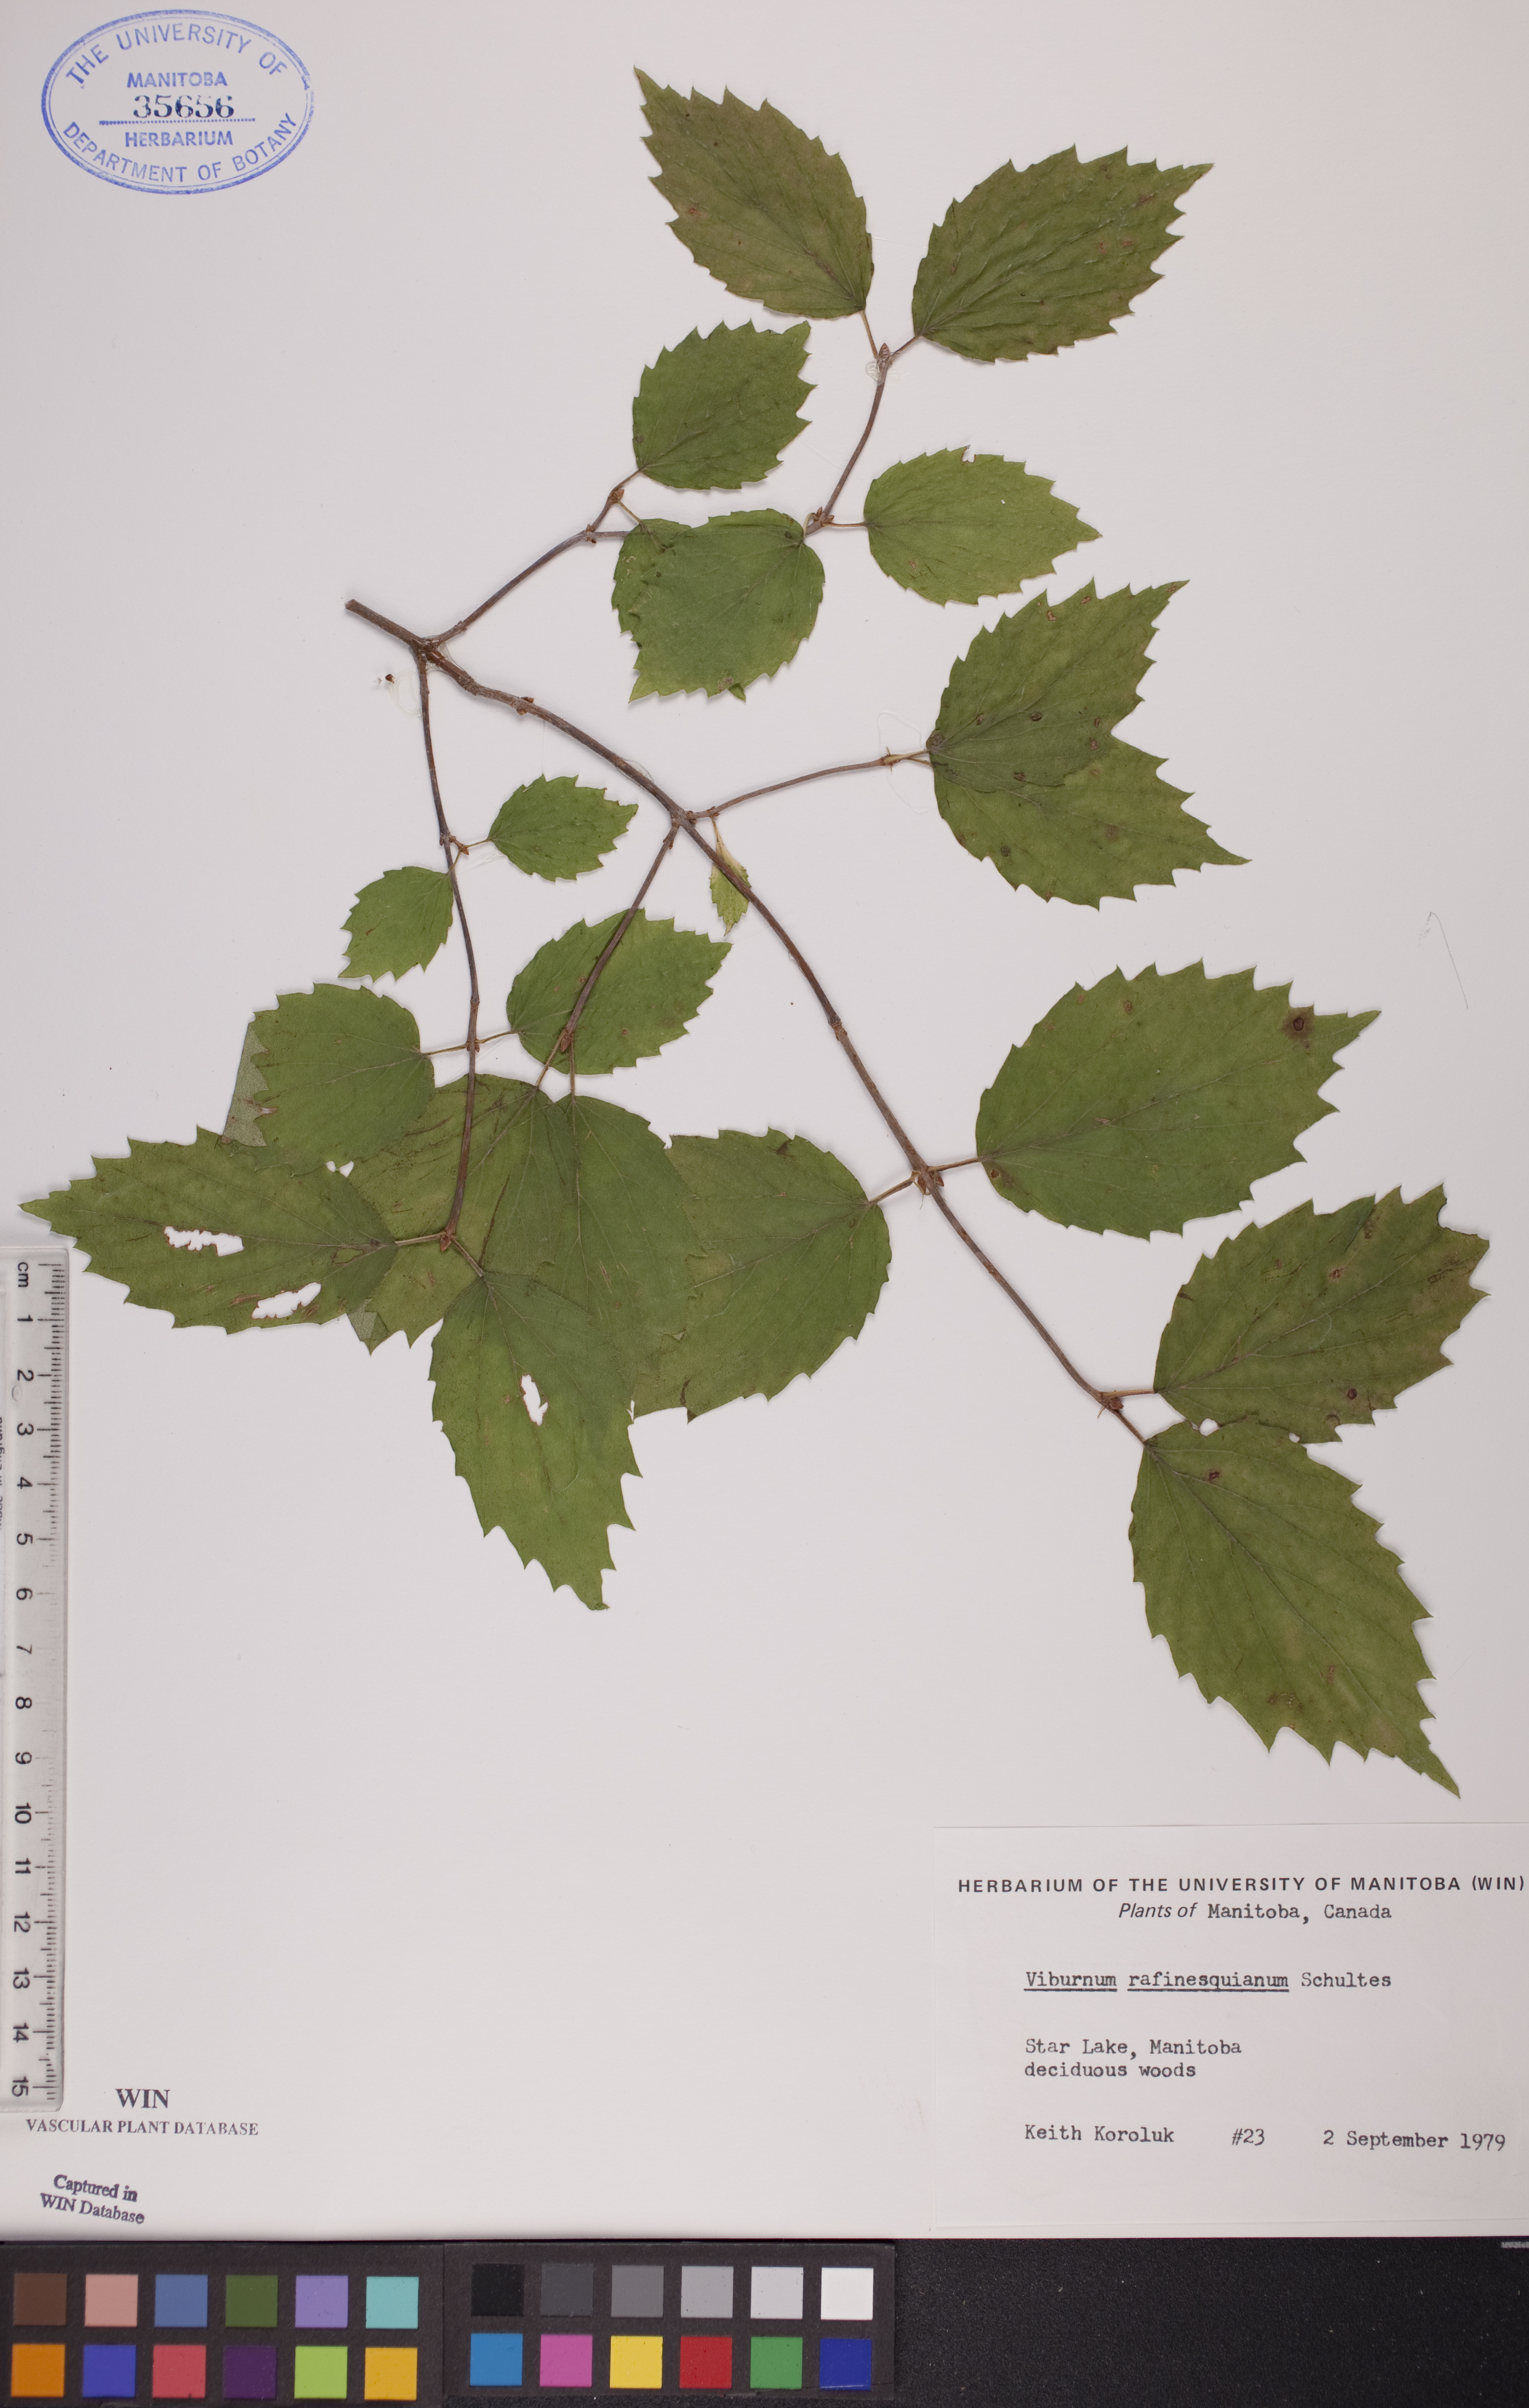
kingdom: Plantae
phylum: Tracheophyta
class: Magnoliopsida
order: Dipsacales
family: Viburnaceae
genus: Viburnum
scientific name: Viburnum rafinesquianum
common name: Downy arrow-wood
